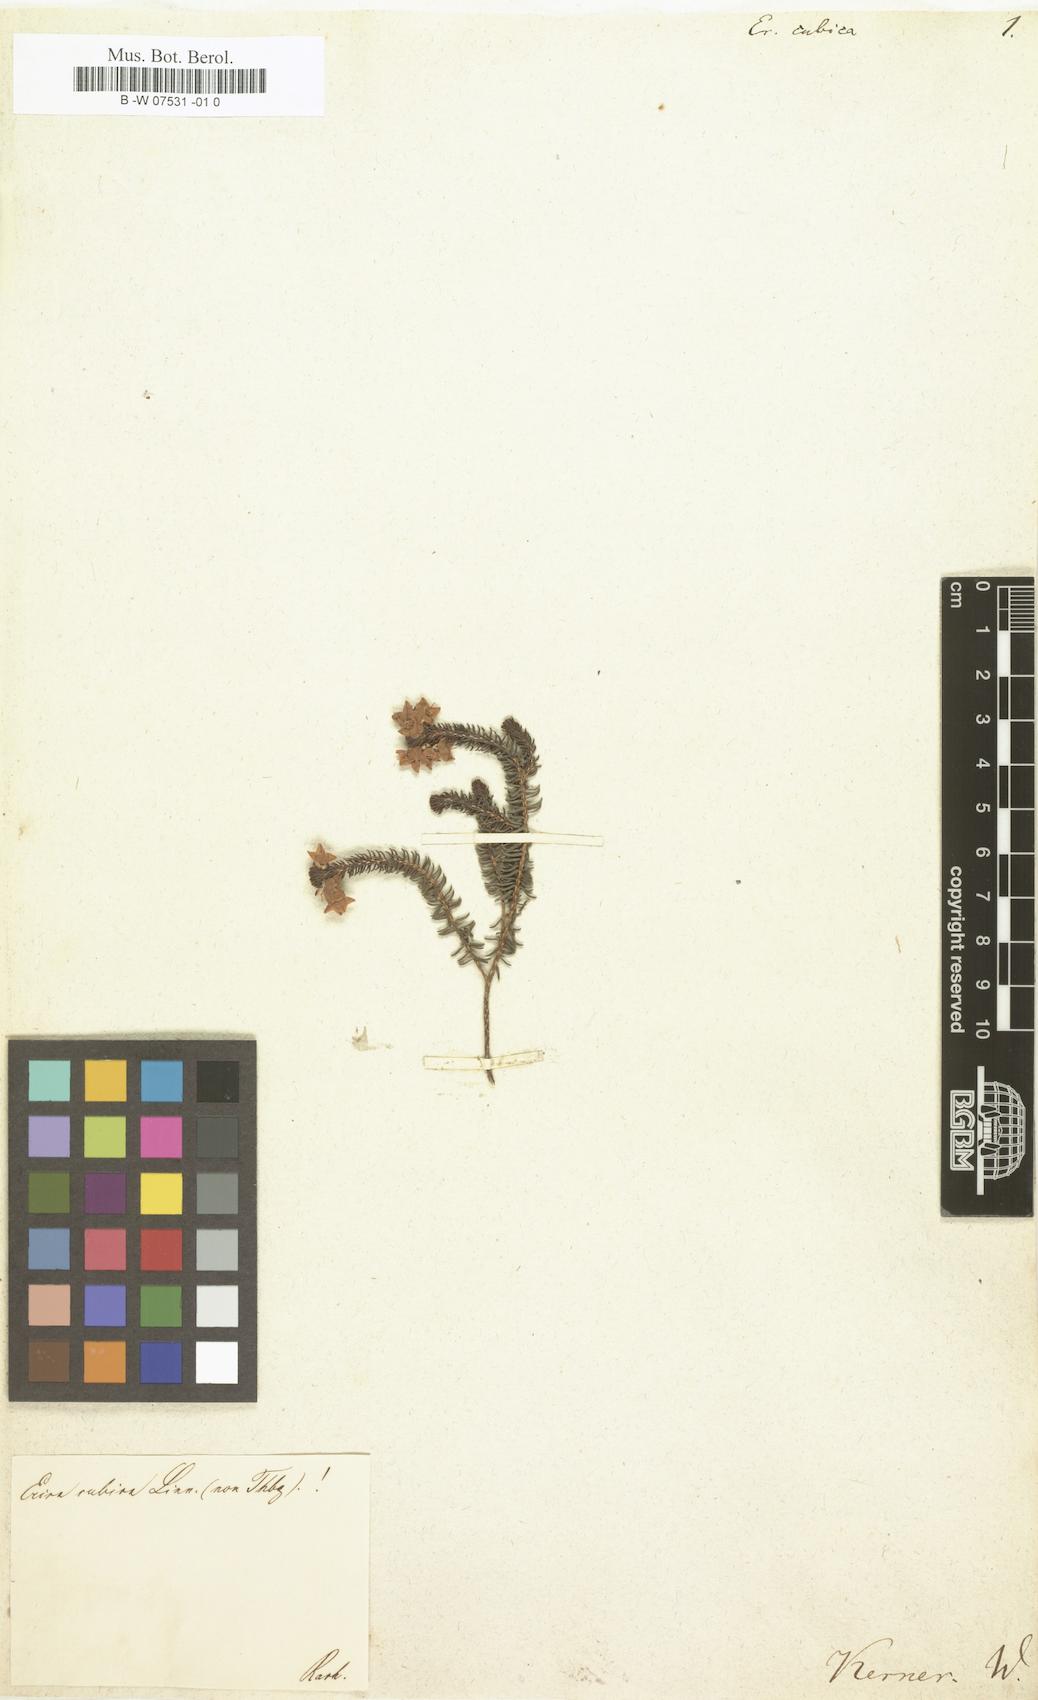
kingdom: Plantae
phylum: Tracheophyta
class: Magnoliopsida
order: Ericales
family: Ericaceae
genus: Erica
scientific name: Erica cubica
